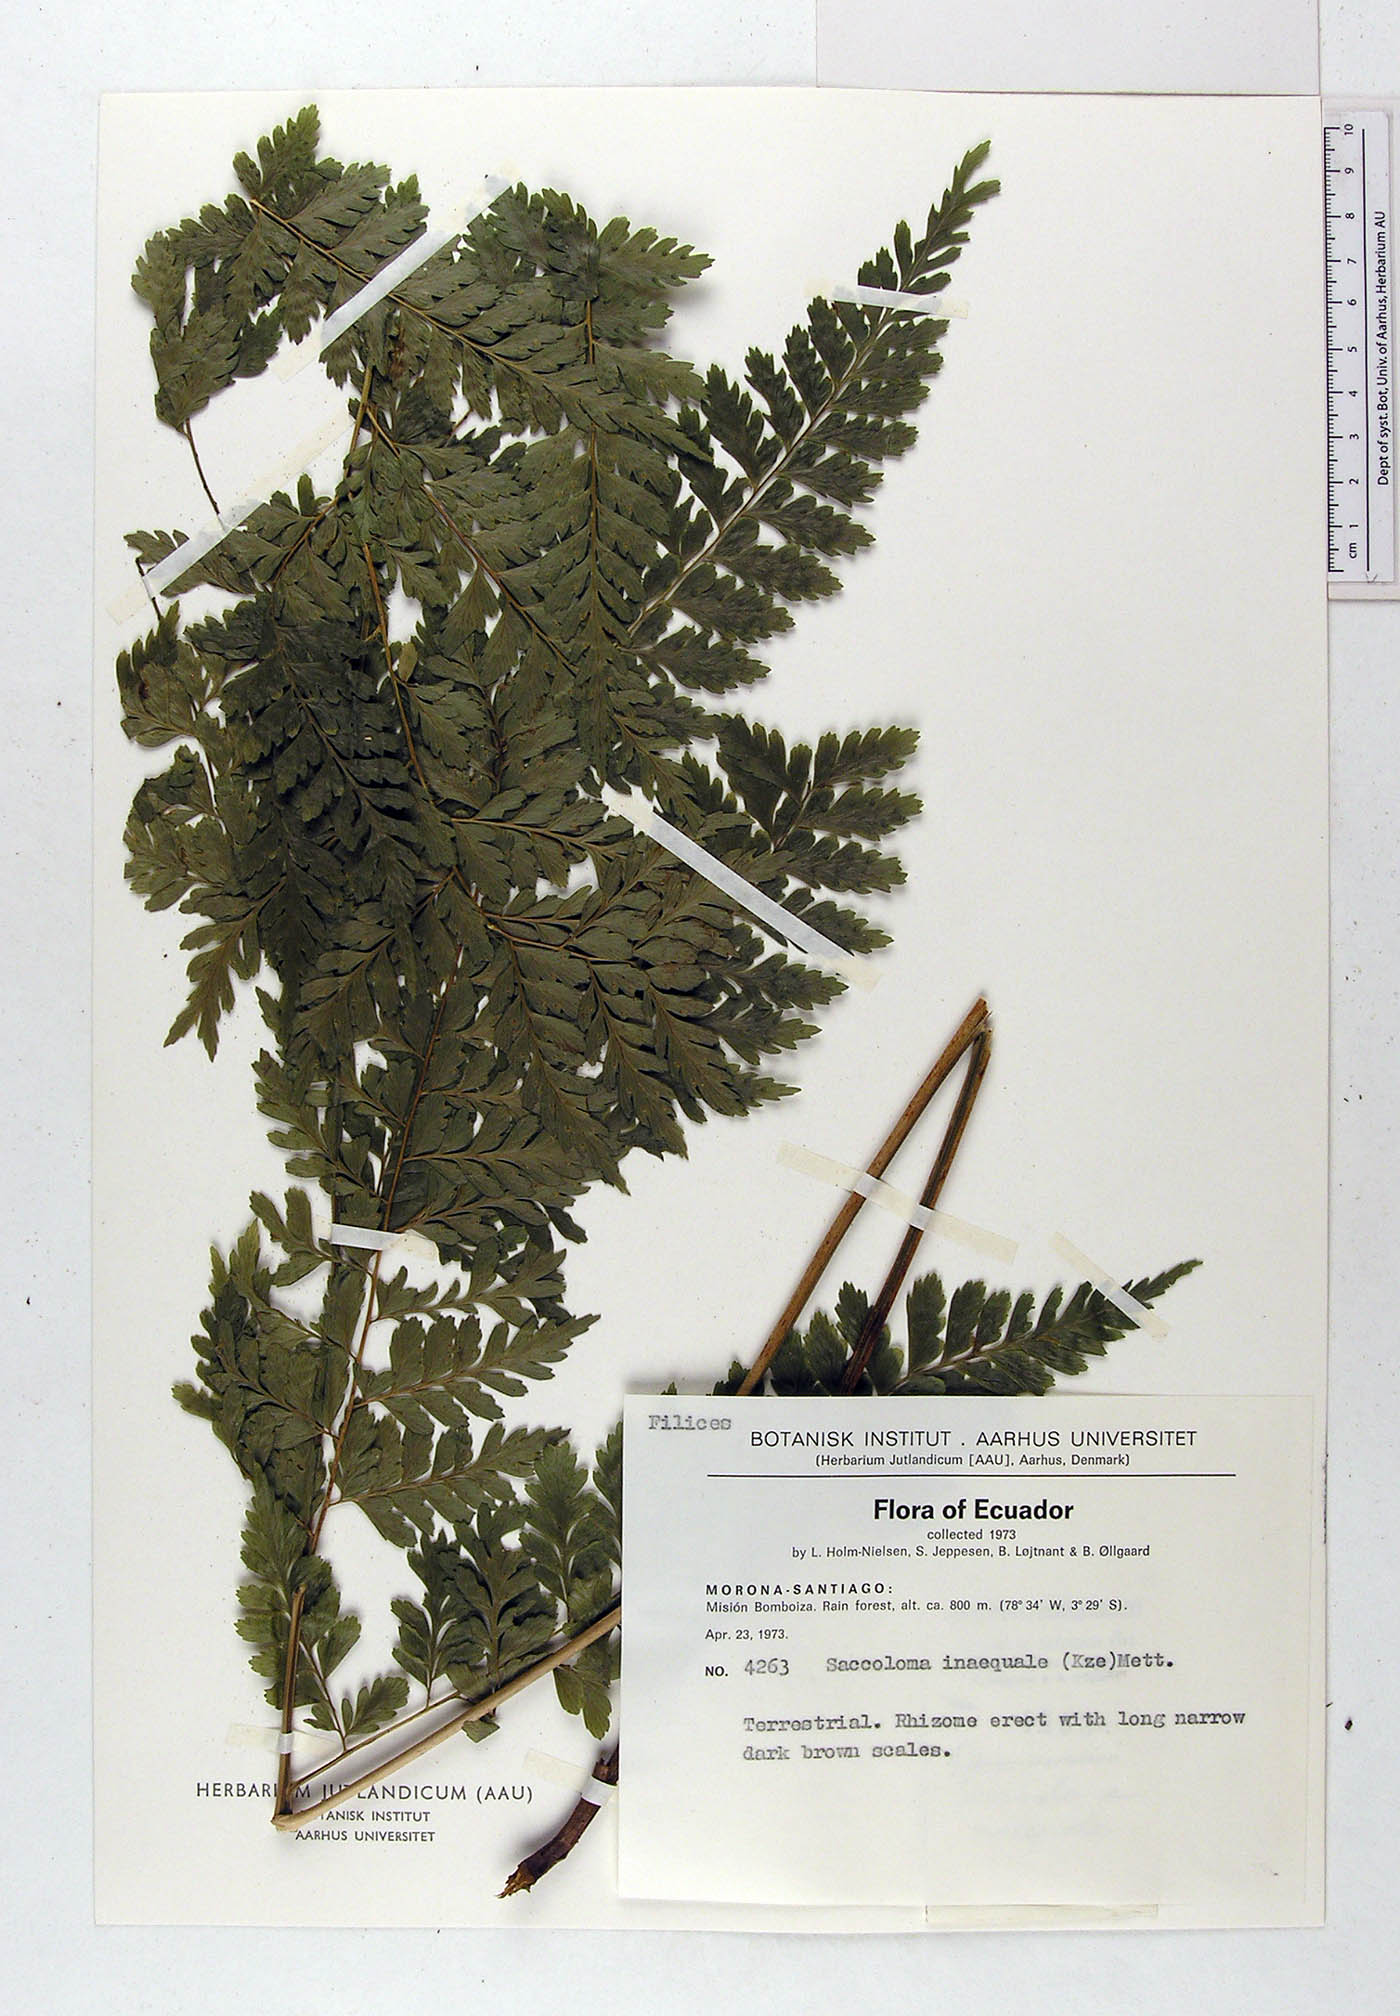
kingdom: Plantae
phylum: Tracheophyta
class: Polypodiopsida
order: Polypodiales
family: Saccolomataceae
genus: Saccoloma
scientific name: Saccoloma inaequale
